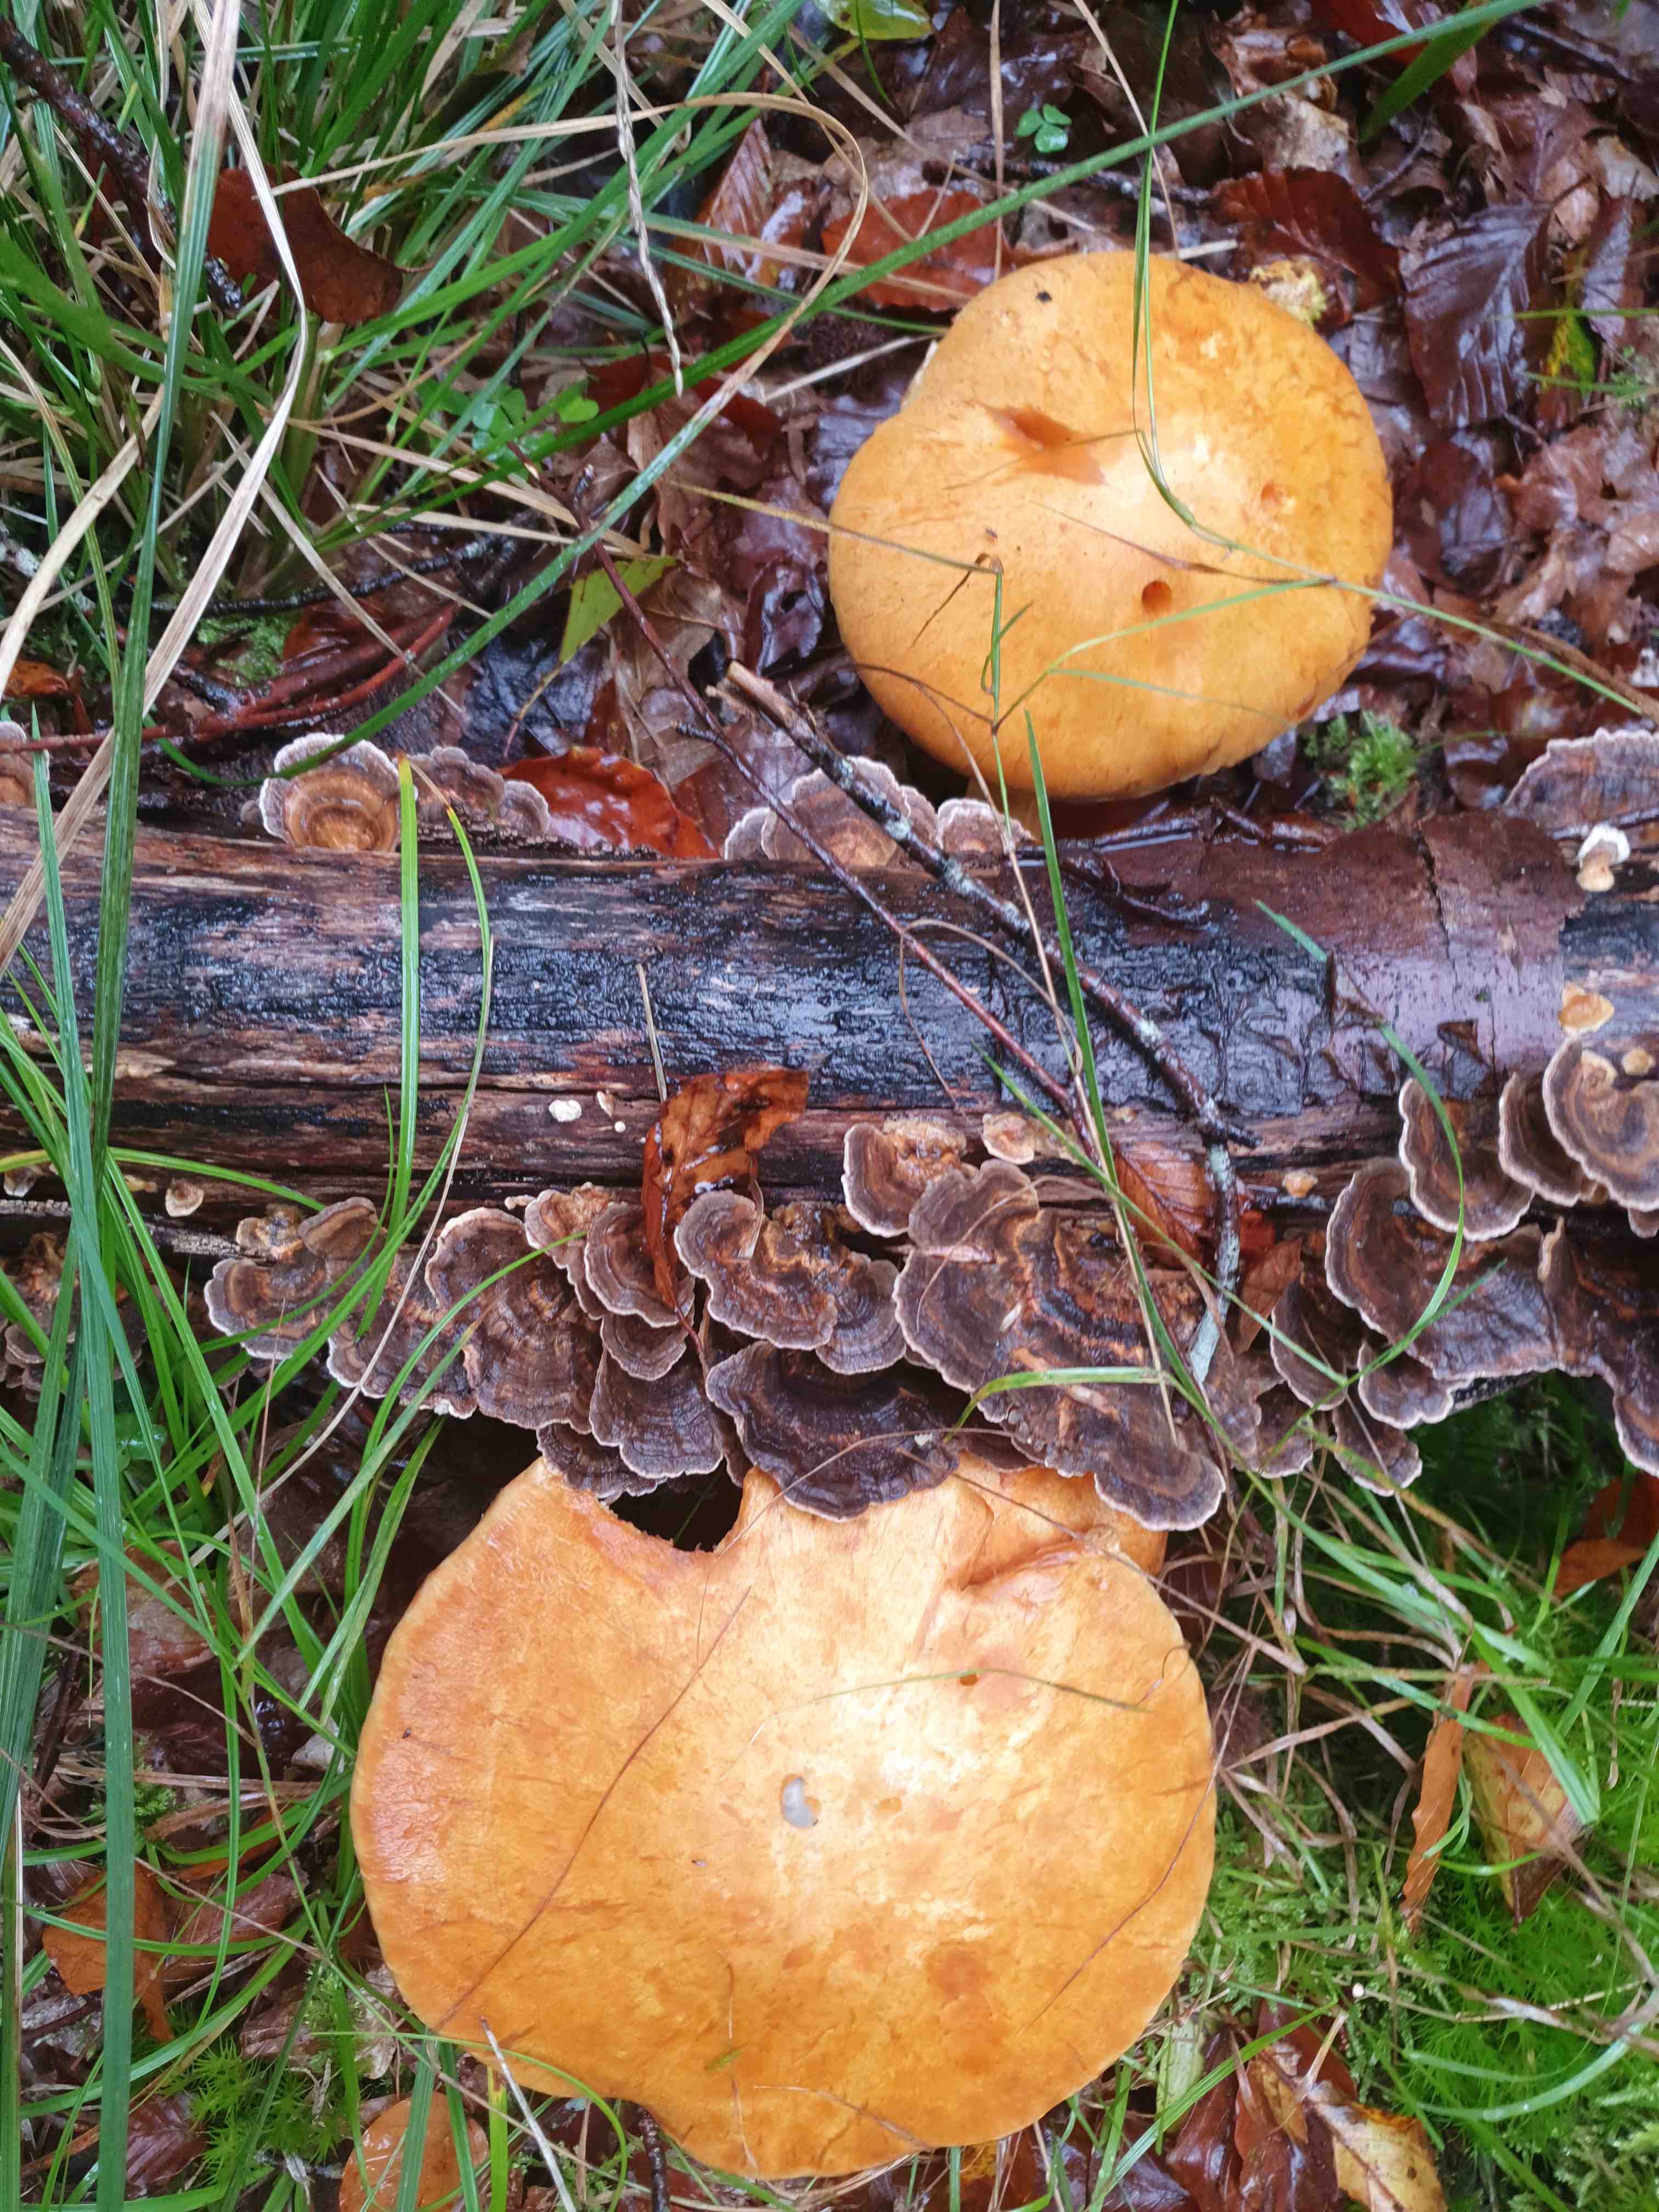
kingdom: Fungi
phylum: Basidiomycota
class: Agaricomycetes
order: Agaricales
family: Hymenogastraceae
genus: Gymnopilus
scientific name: Gymnopilus spectabilis
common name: fibret flammehat
